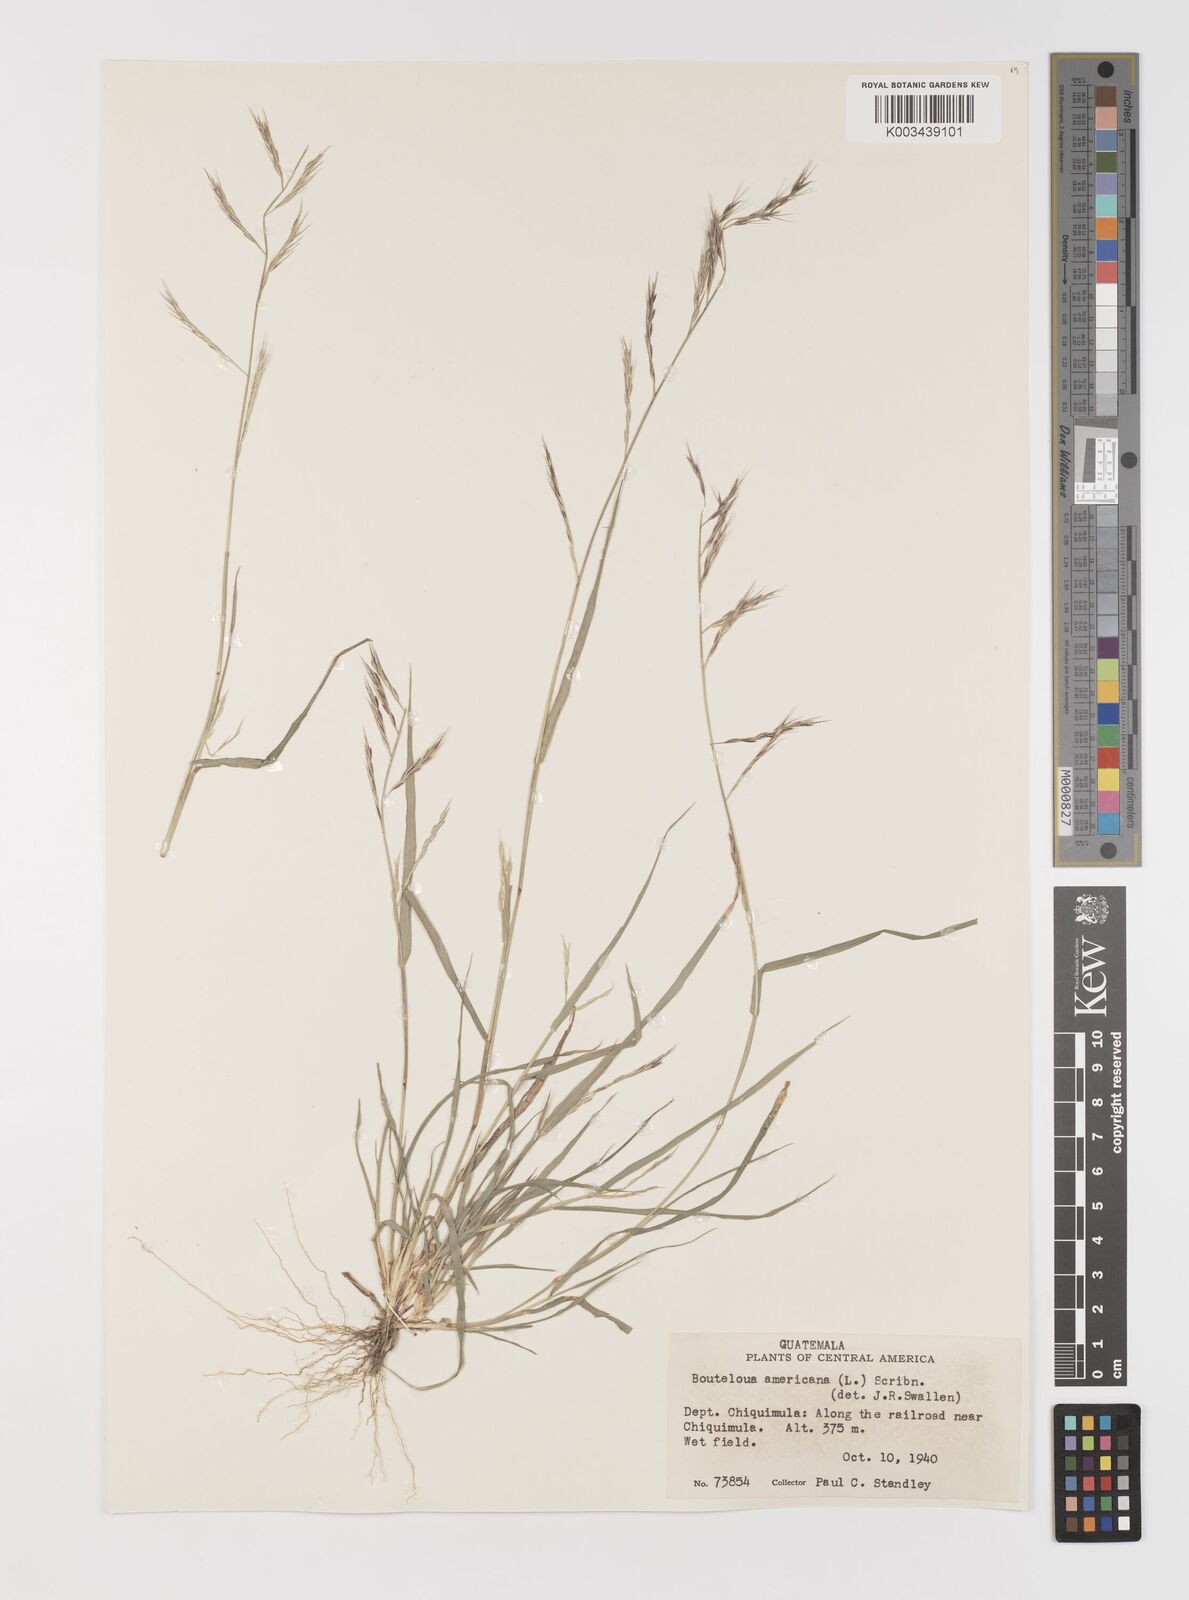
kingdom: Plantae
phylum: Tracheophyta
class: Liliopsida
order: Poales
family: Poaceae
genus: Bouteloua
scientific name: Bouteloua americana
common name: Mule grass
